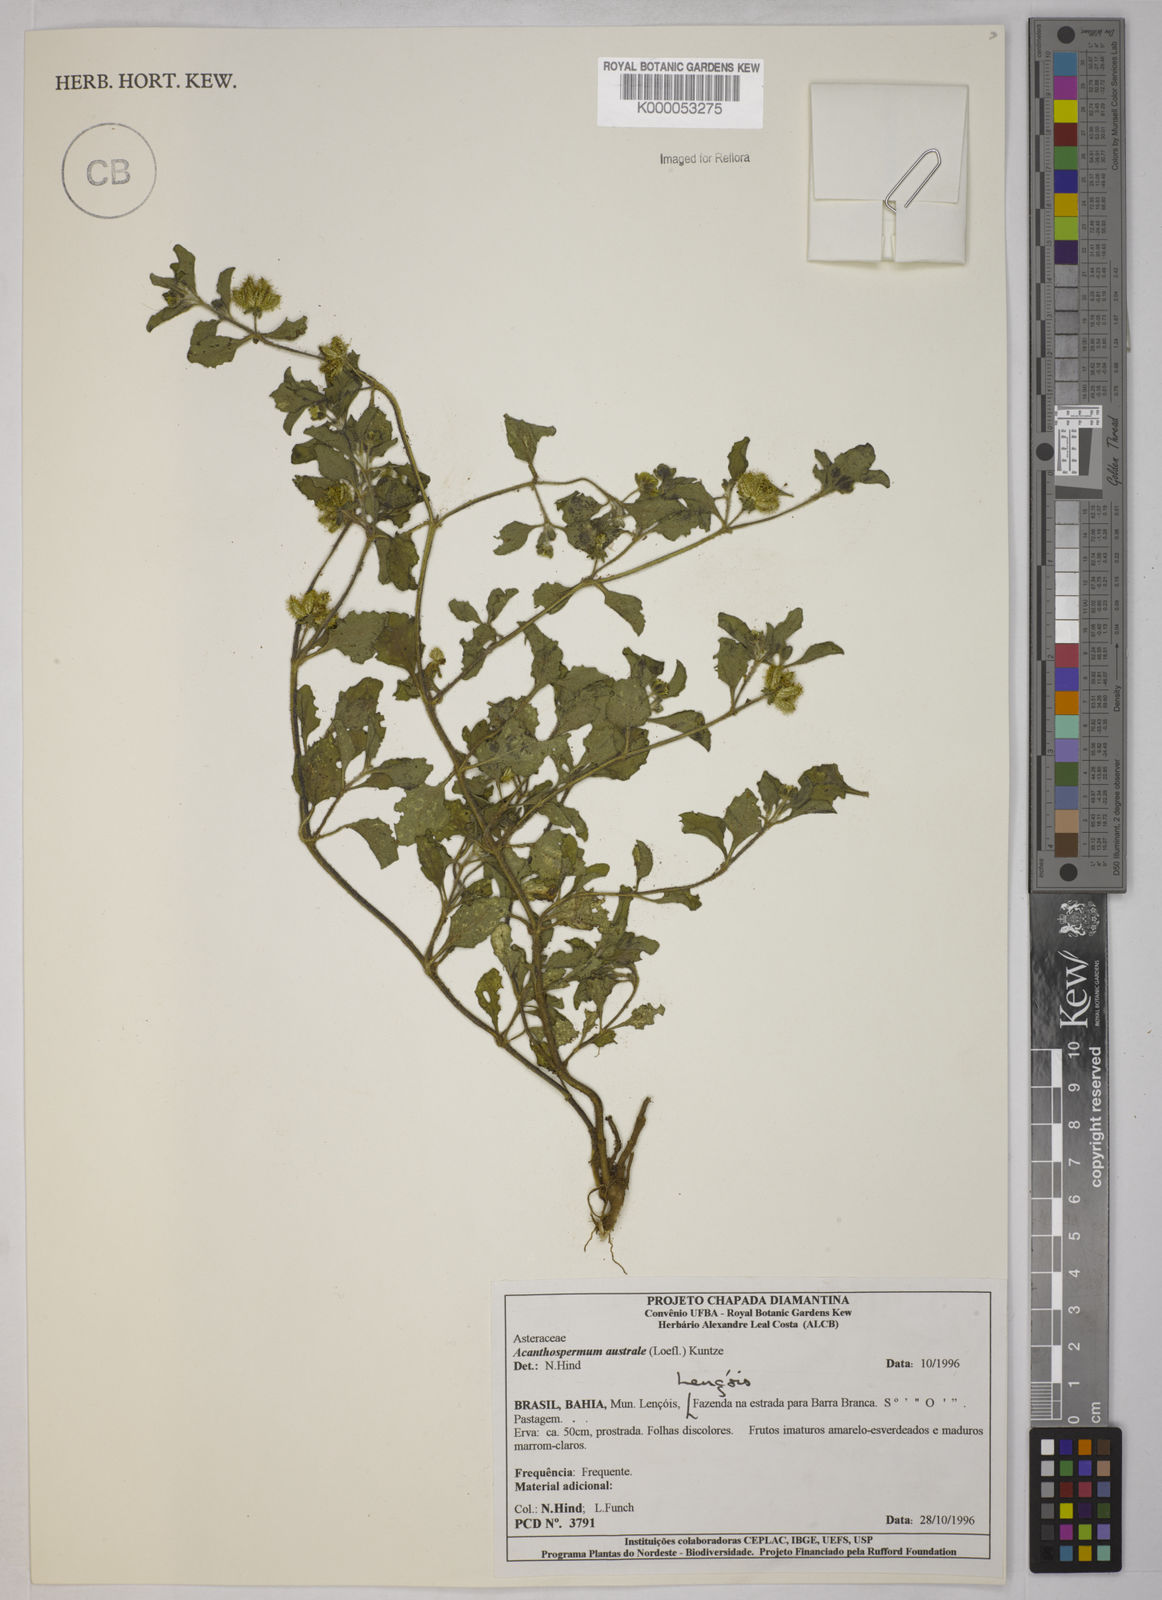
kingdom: Plantae
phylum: Tracheophyta
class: Magnoliopsida
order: Asterales
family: Asteraceae
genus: Acanthospermum
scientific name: Acanthospermum australe
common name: Paraguayan starbur
